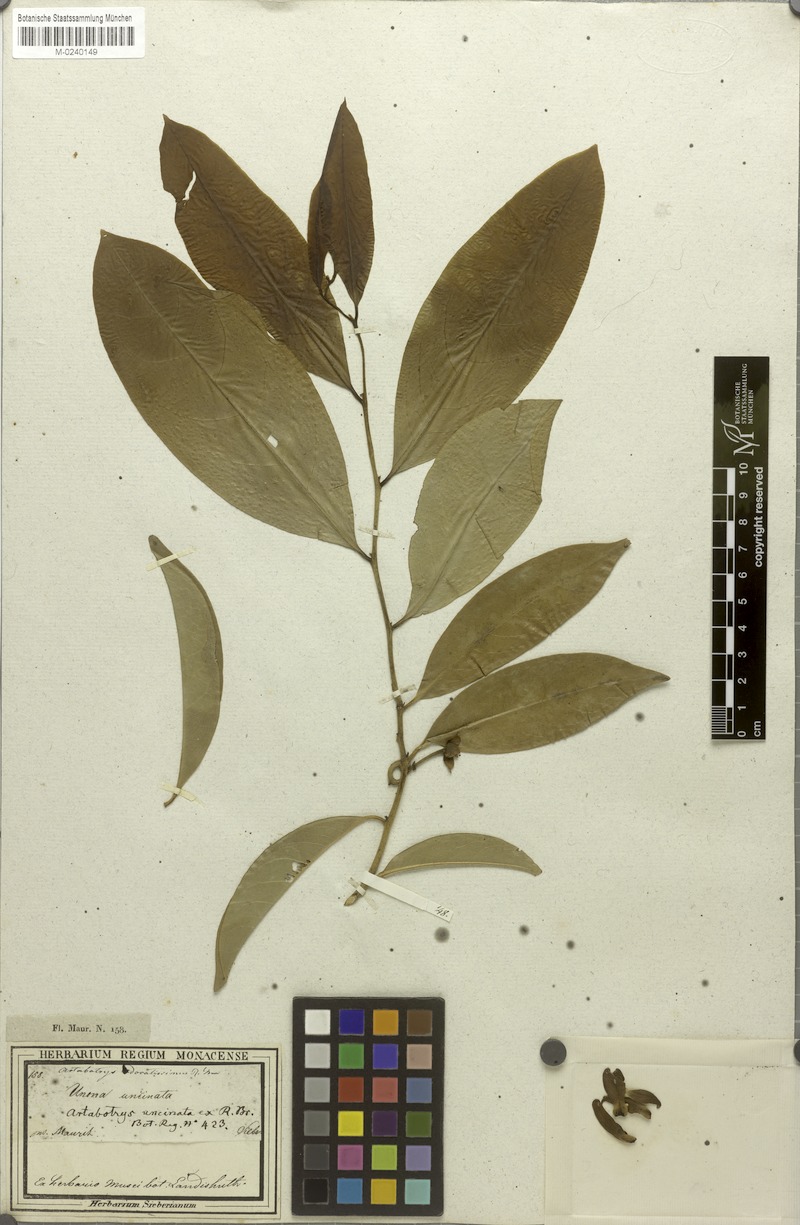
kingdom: Plantae
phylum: Tracheophyta
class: Magnoliopsida
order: Magnoliales
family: Annonaceae
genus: Artabotrys
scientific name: Artabotrys hexapetalus
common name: Climbing ilang-ilang
